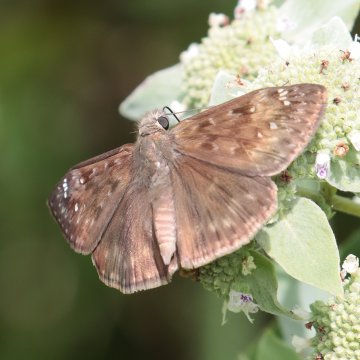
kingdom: Animalia
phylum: Arthropoda
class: Insecta
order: Lepidoptera
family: Hesperiidae
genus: Gesta
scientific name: Gesta
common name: Horace's Duskywing
